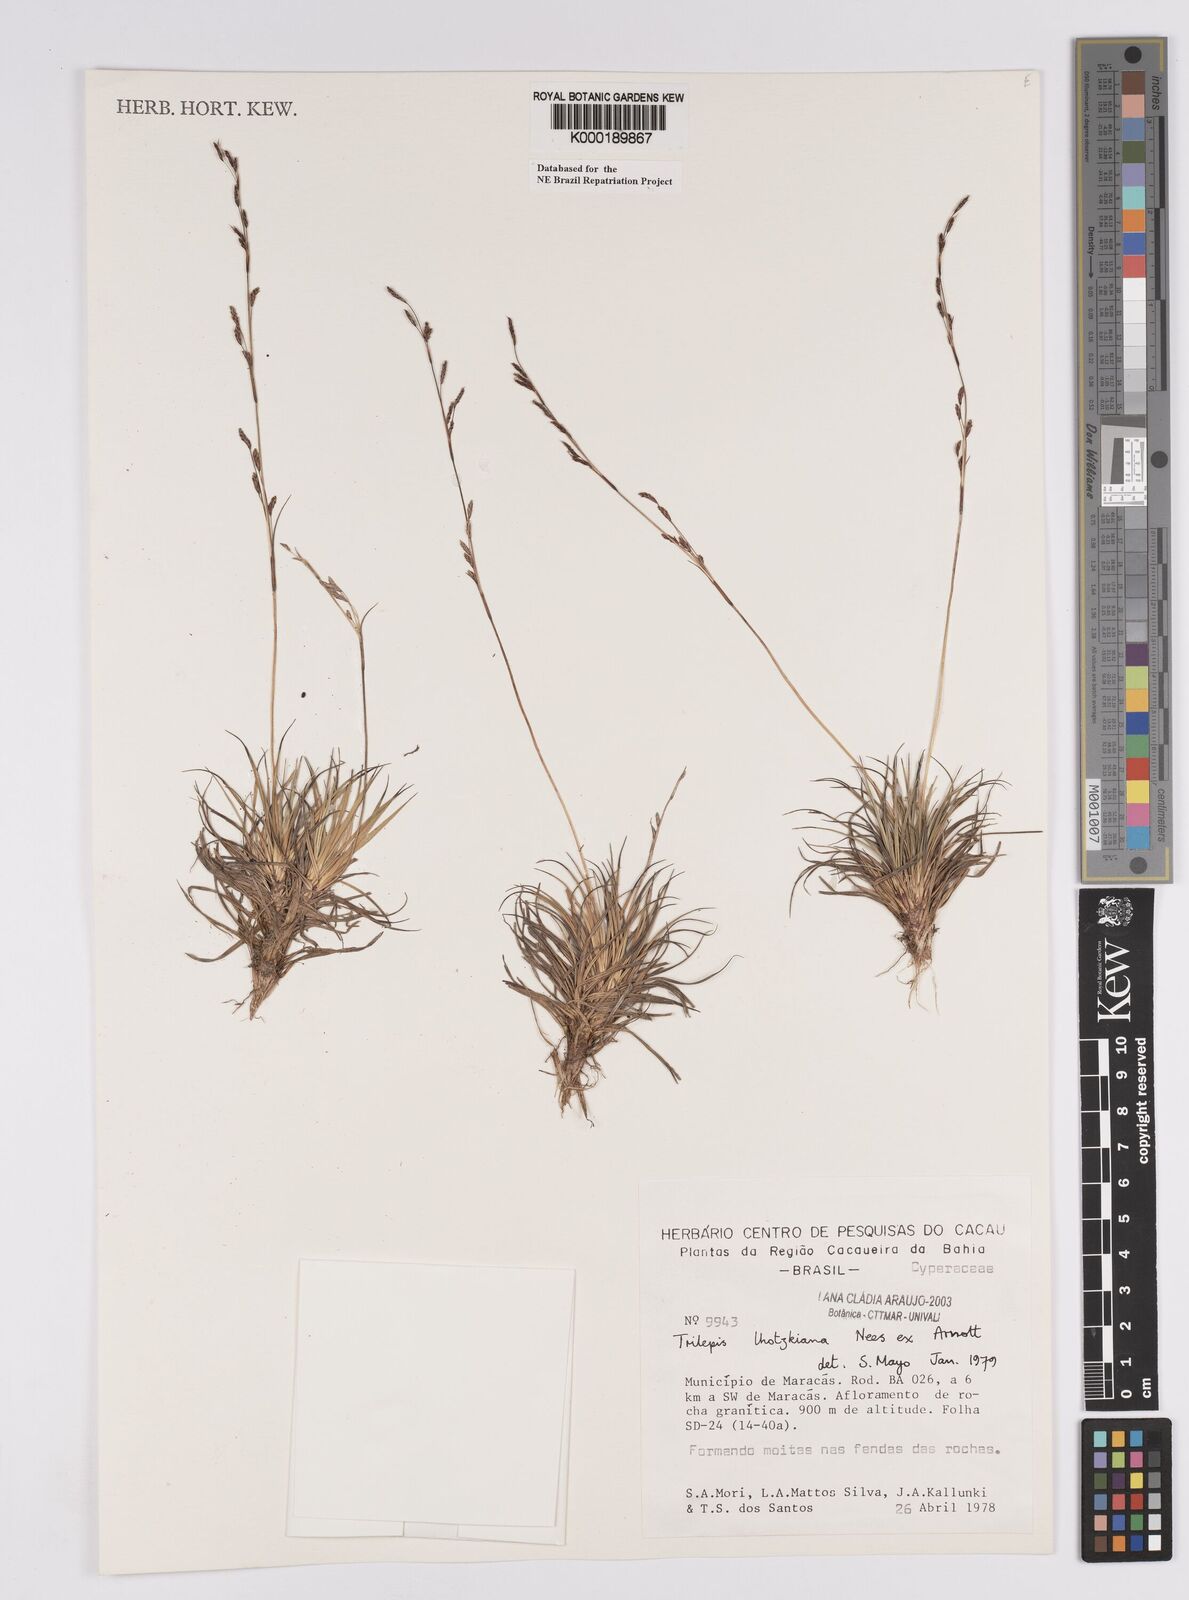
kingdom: Plantae
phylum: Tracheophyta
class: Liliopsida
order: Poales
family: Cyperaceae
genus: Trilepis
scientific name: Trilepis lhotzkiana
